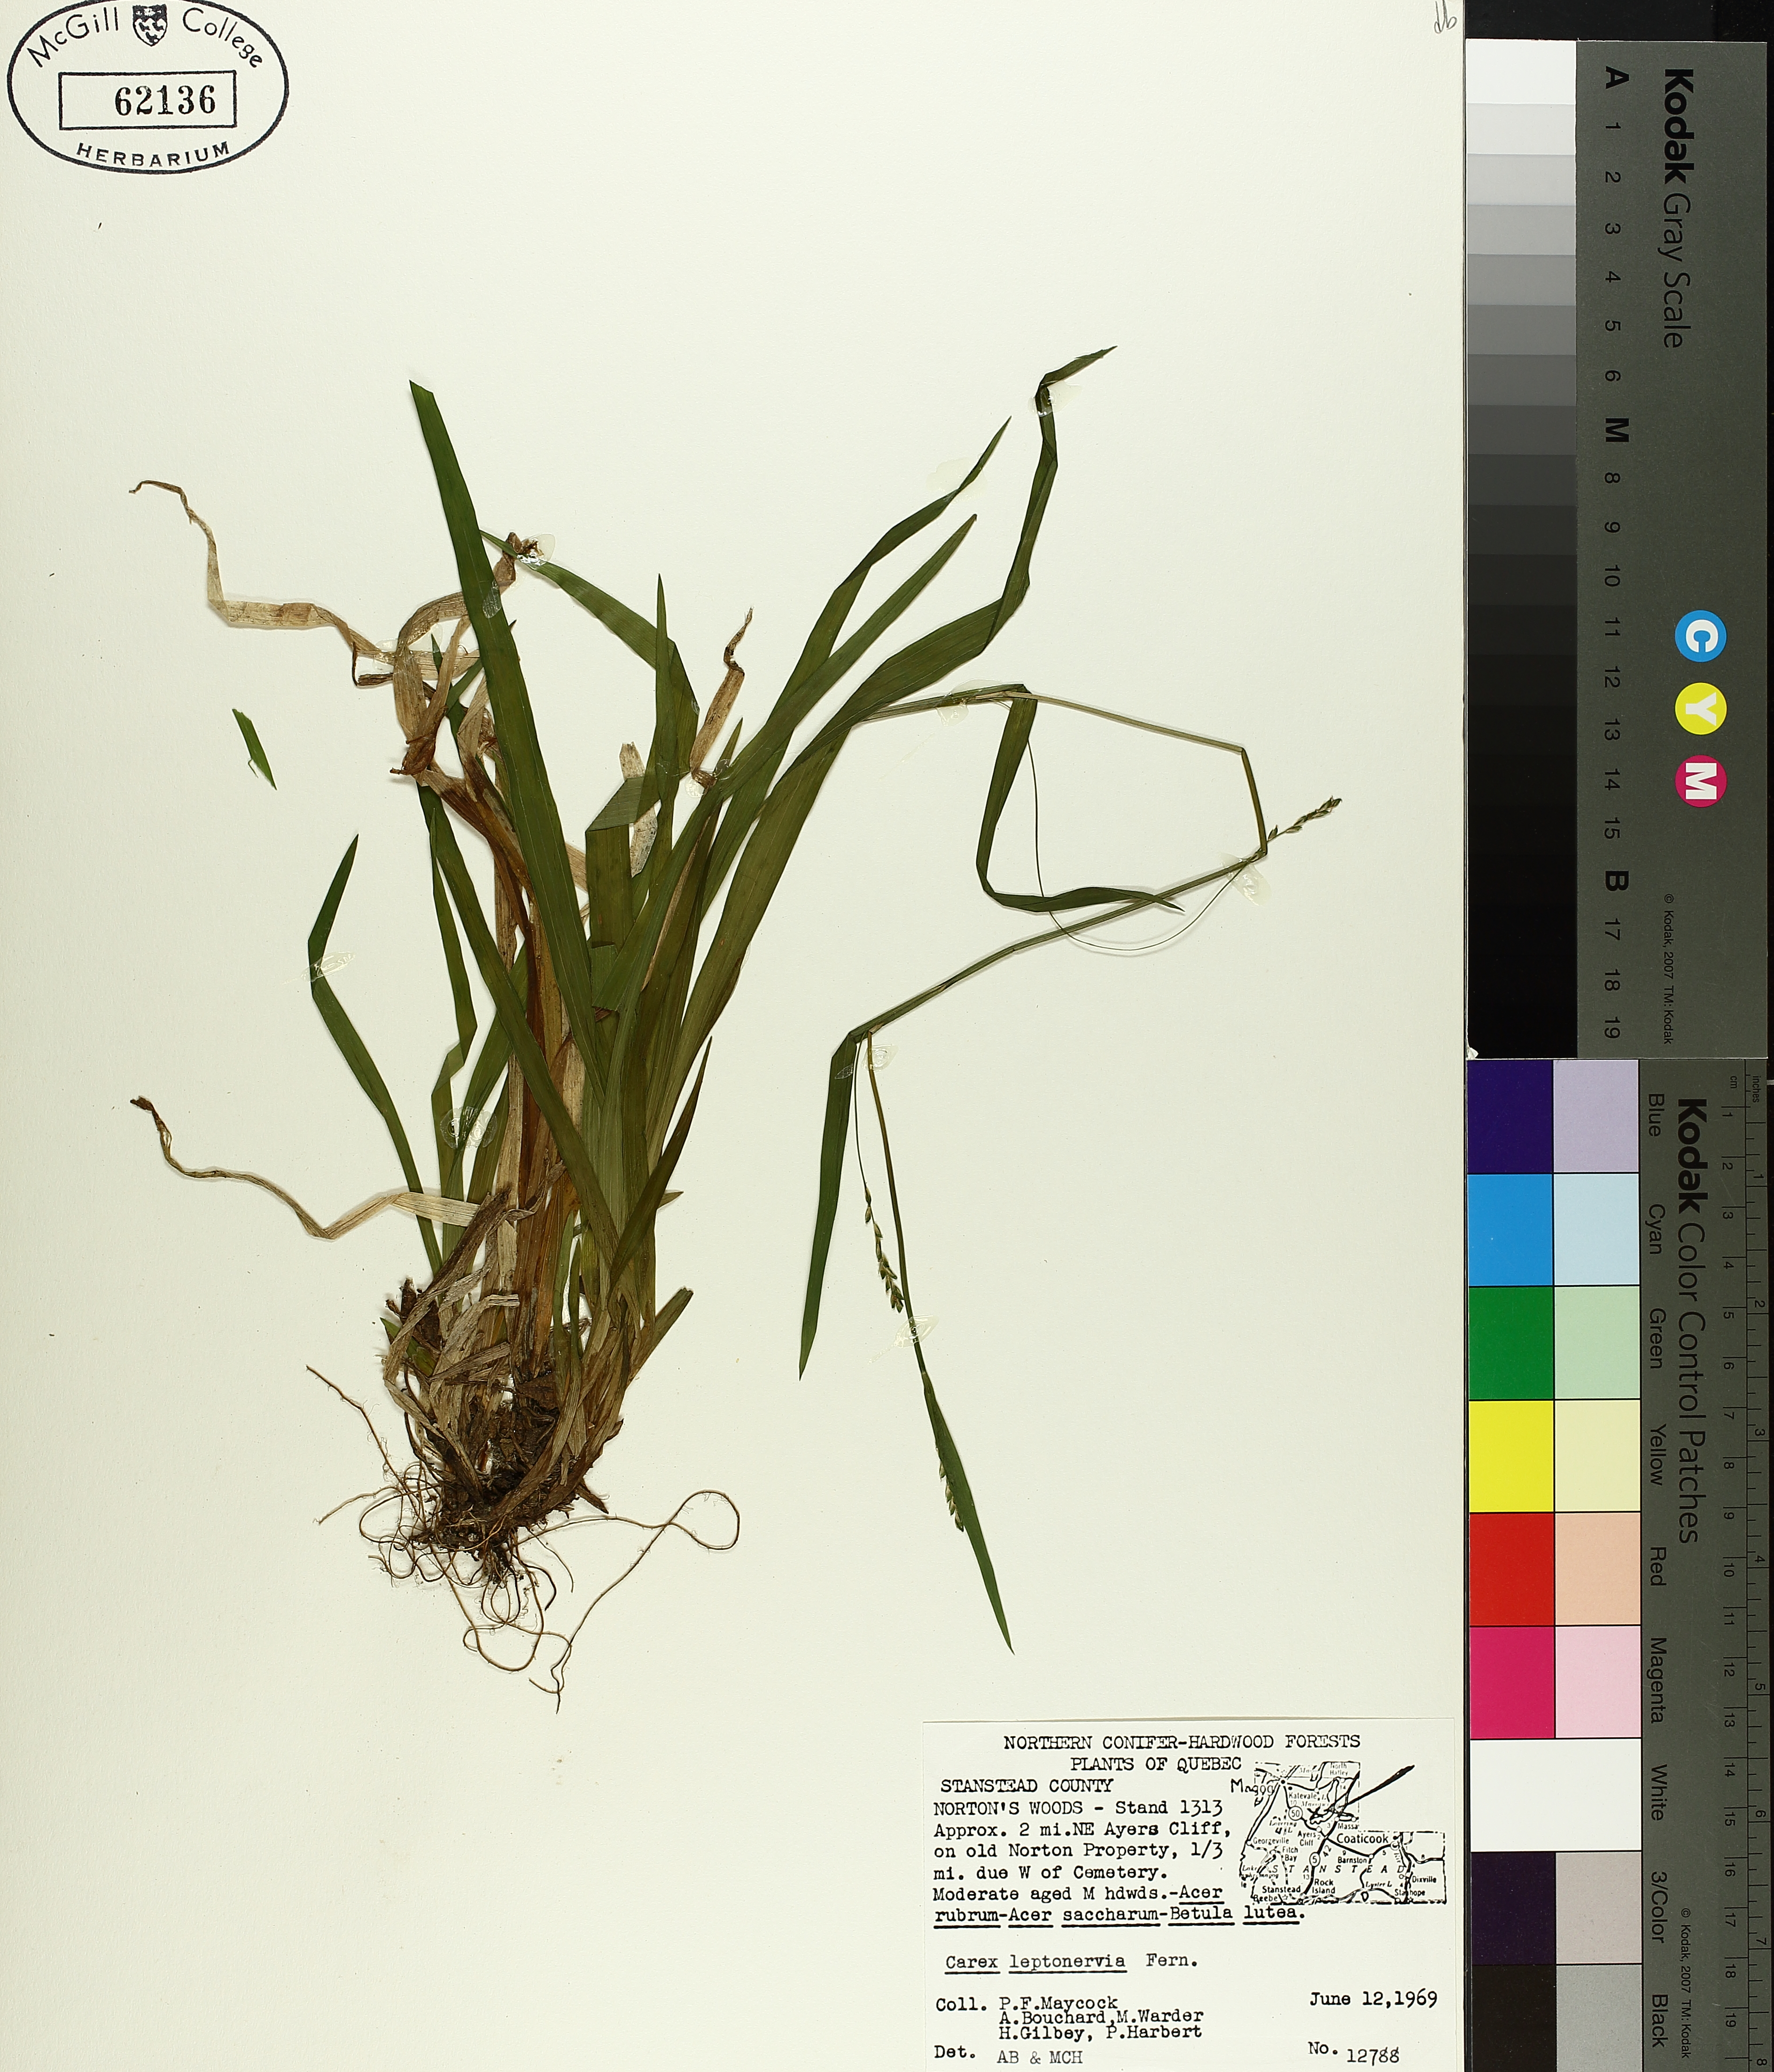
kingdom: Plantae
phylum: Tracheophyta
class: Liliopsida
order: Poales
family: Cyperaceae
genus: Carex
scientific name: Carex leptonervia
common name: Few-nerved wood sedge
